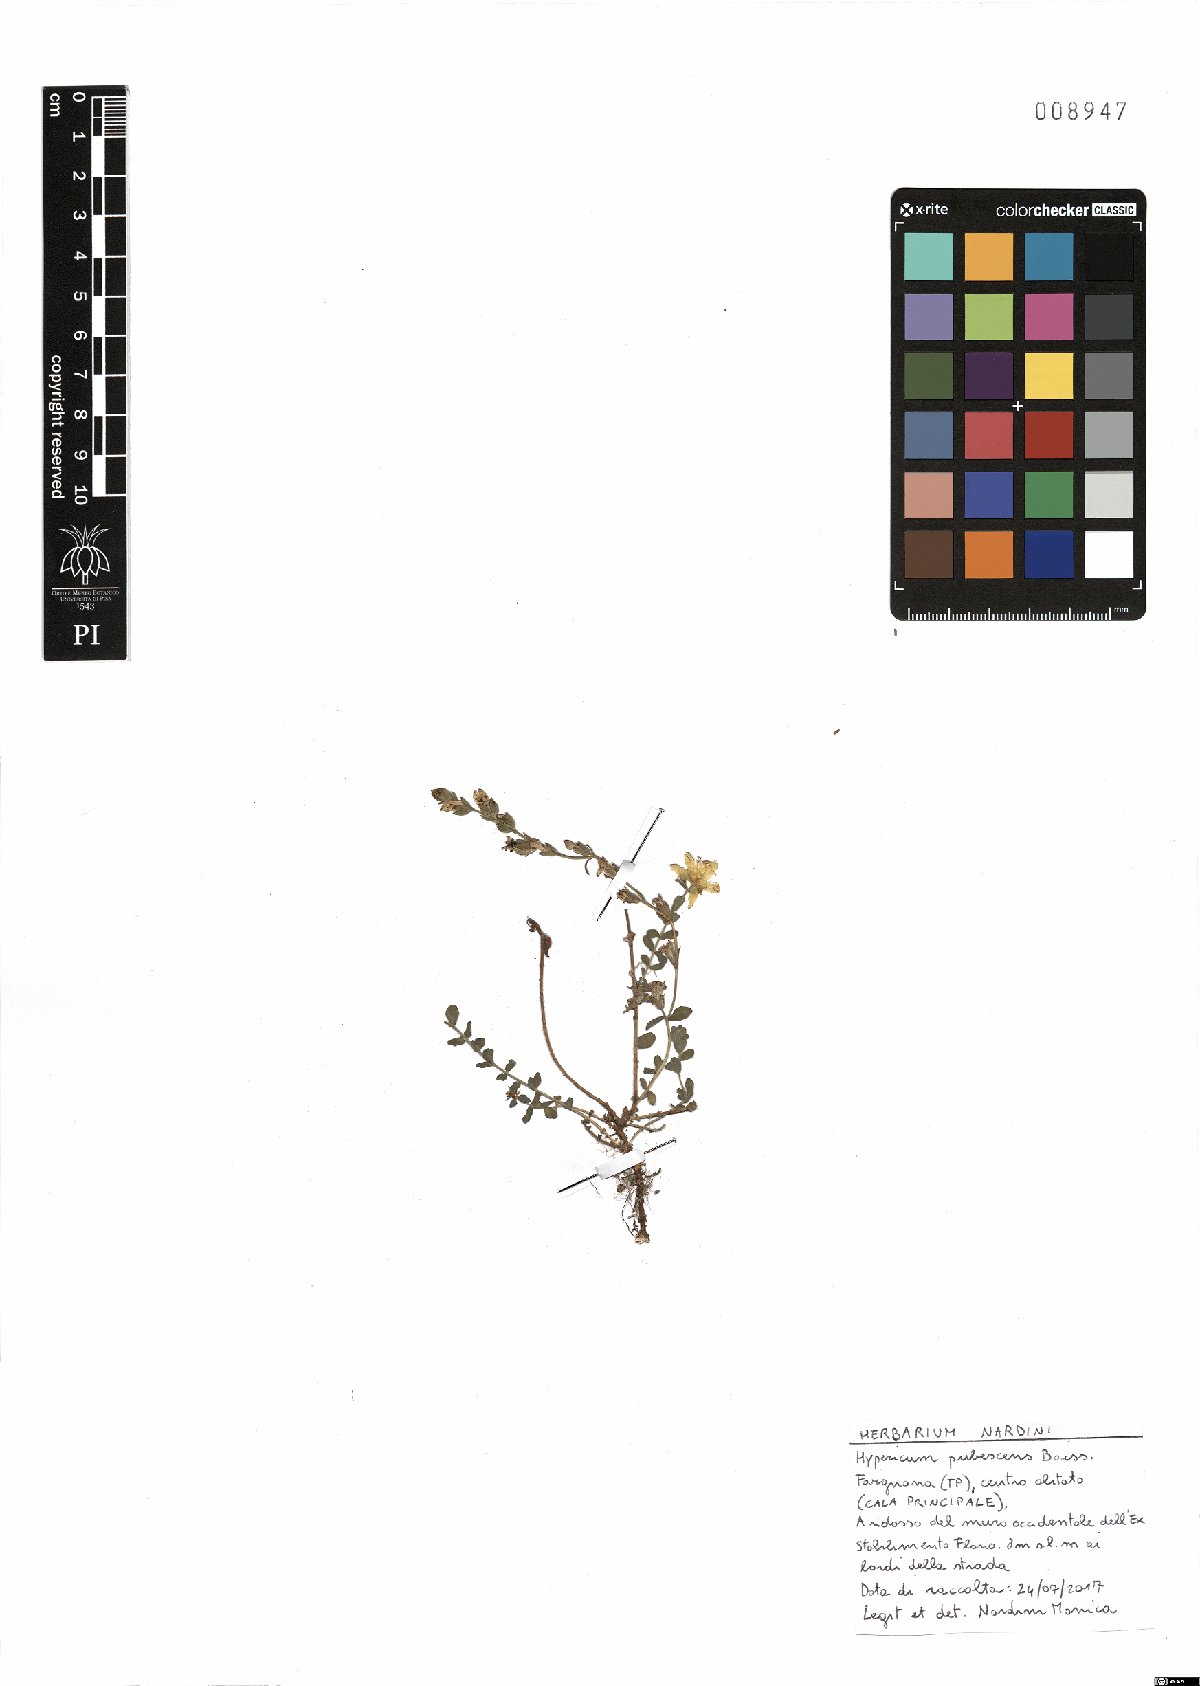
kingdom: Plantae
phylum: Tracheophyta
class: Magnoliopsida
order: Malpighiales
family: Hypericaceae
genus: Hypericum
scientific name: Hypericum pubescens
